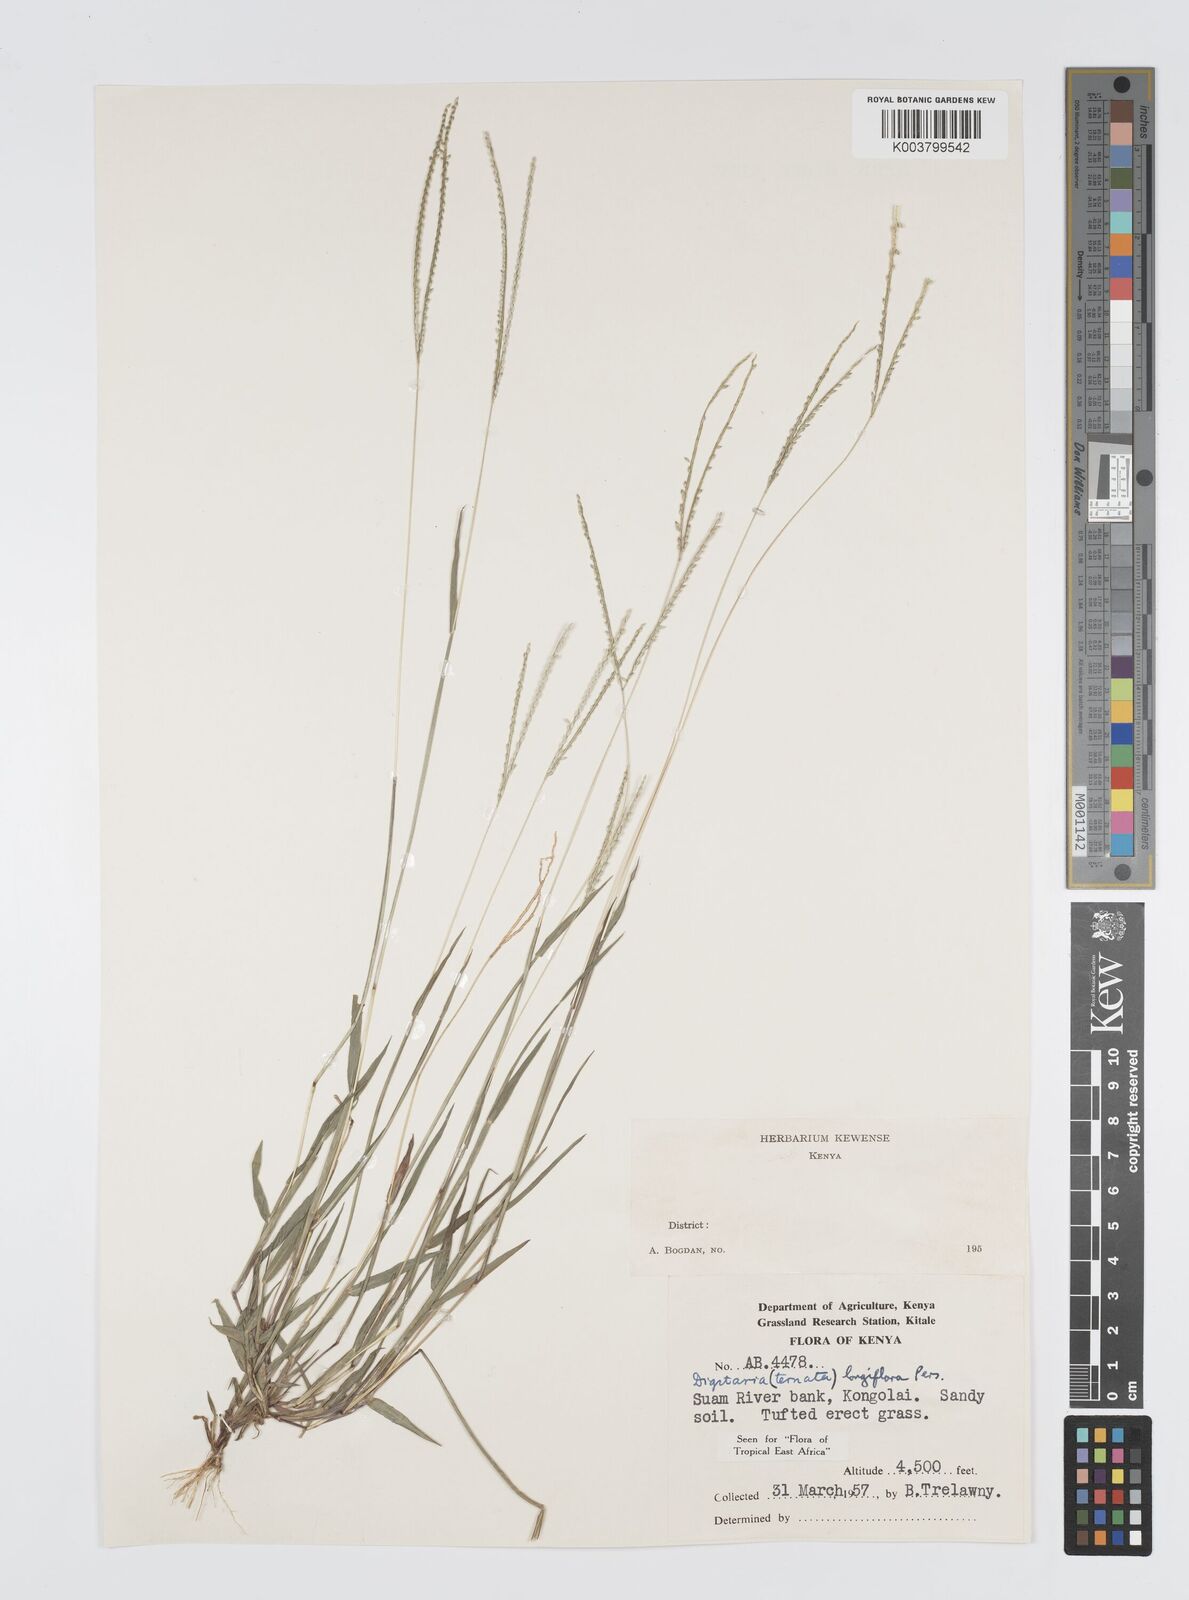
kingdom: Plantae
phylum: Tracheophyta
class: Liliopsida
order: Poales
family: Poaceae
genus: Digitaria
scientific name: Digitaria longiflora
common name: Wire crabgrass
